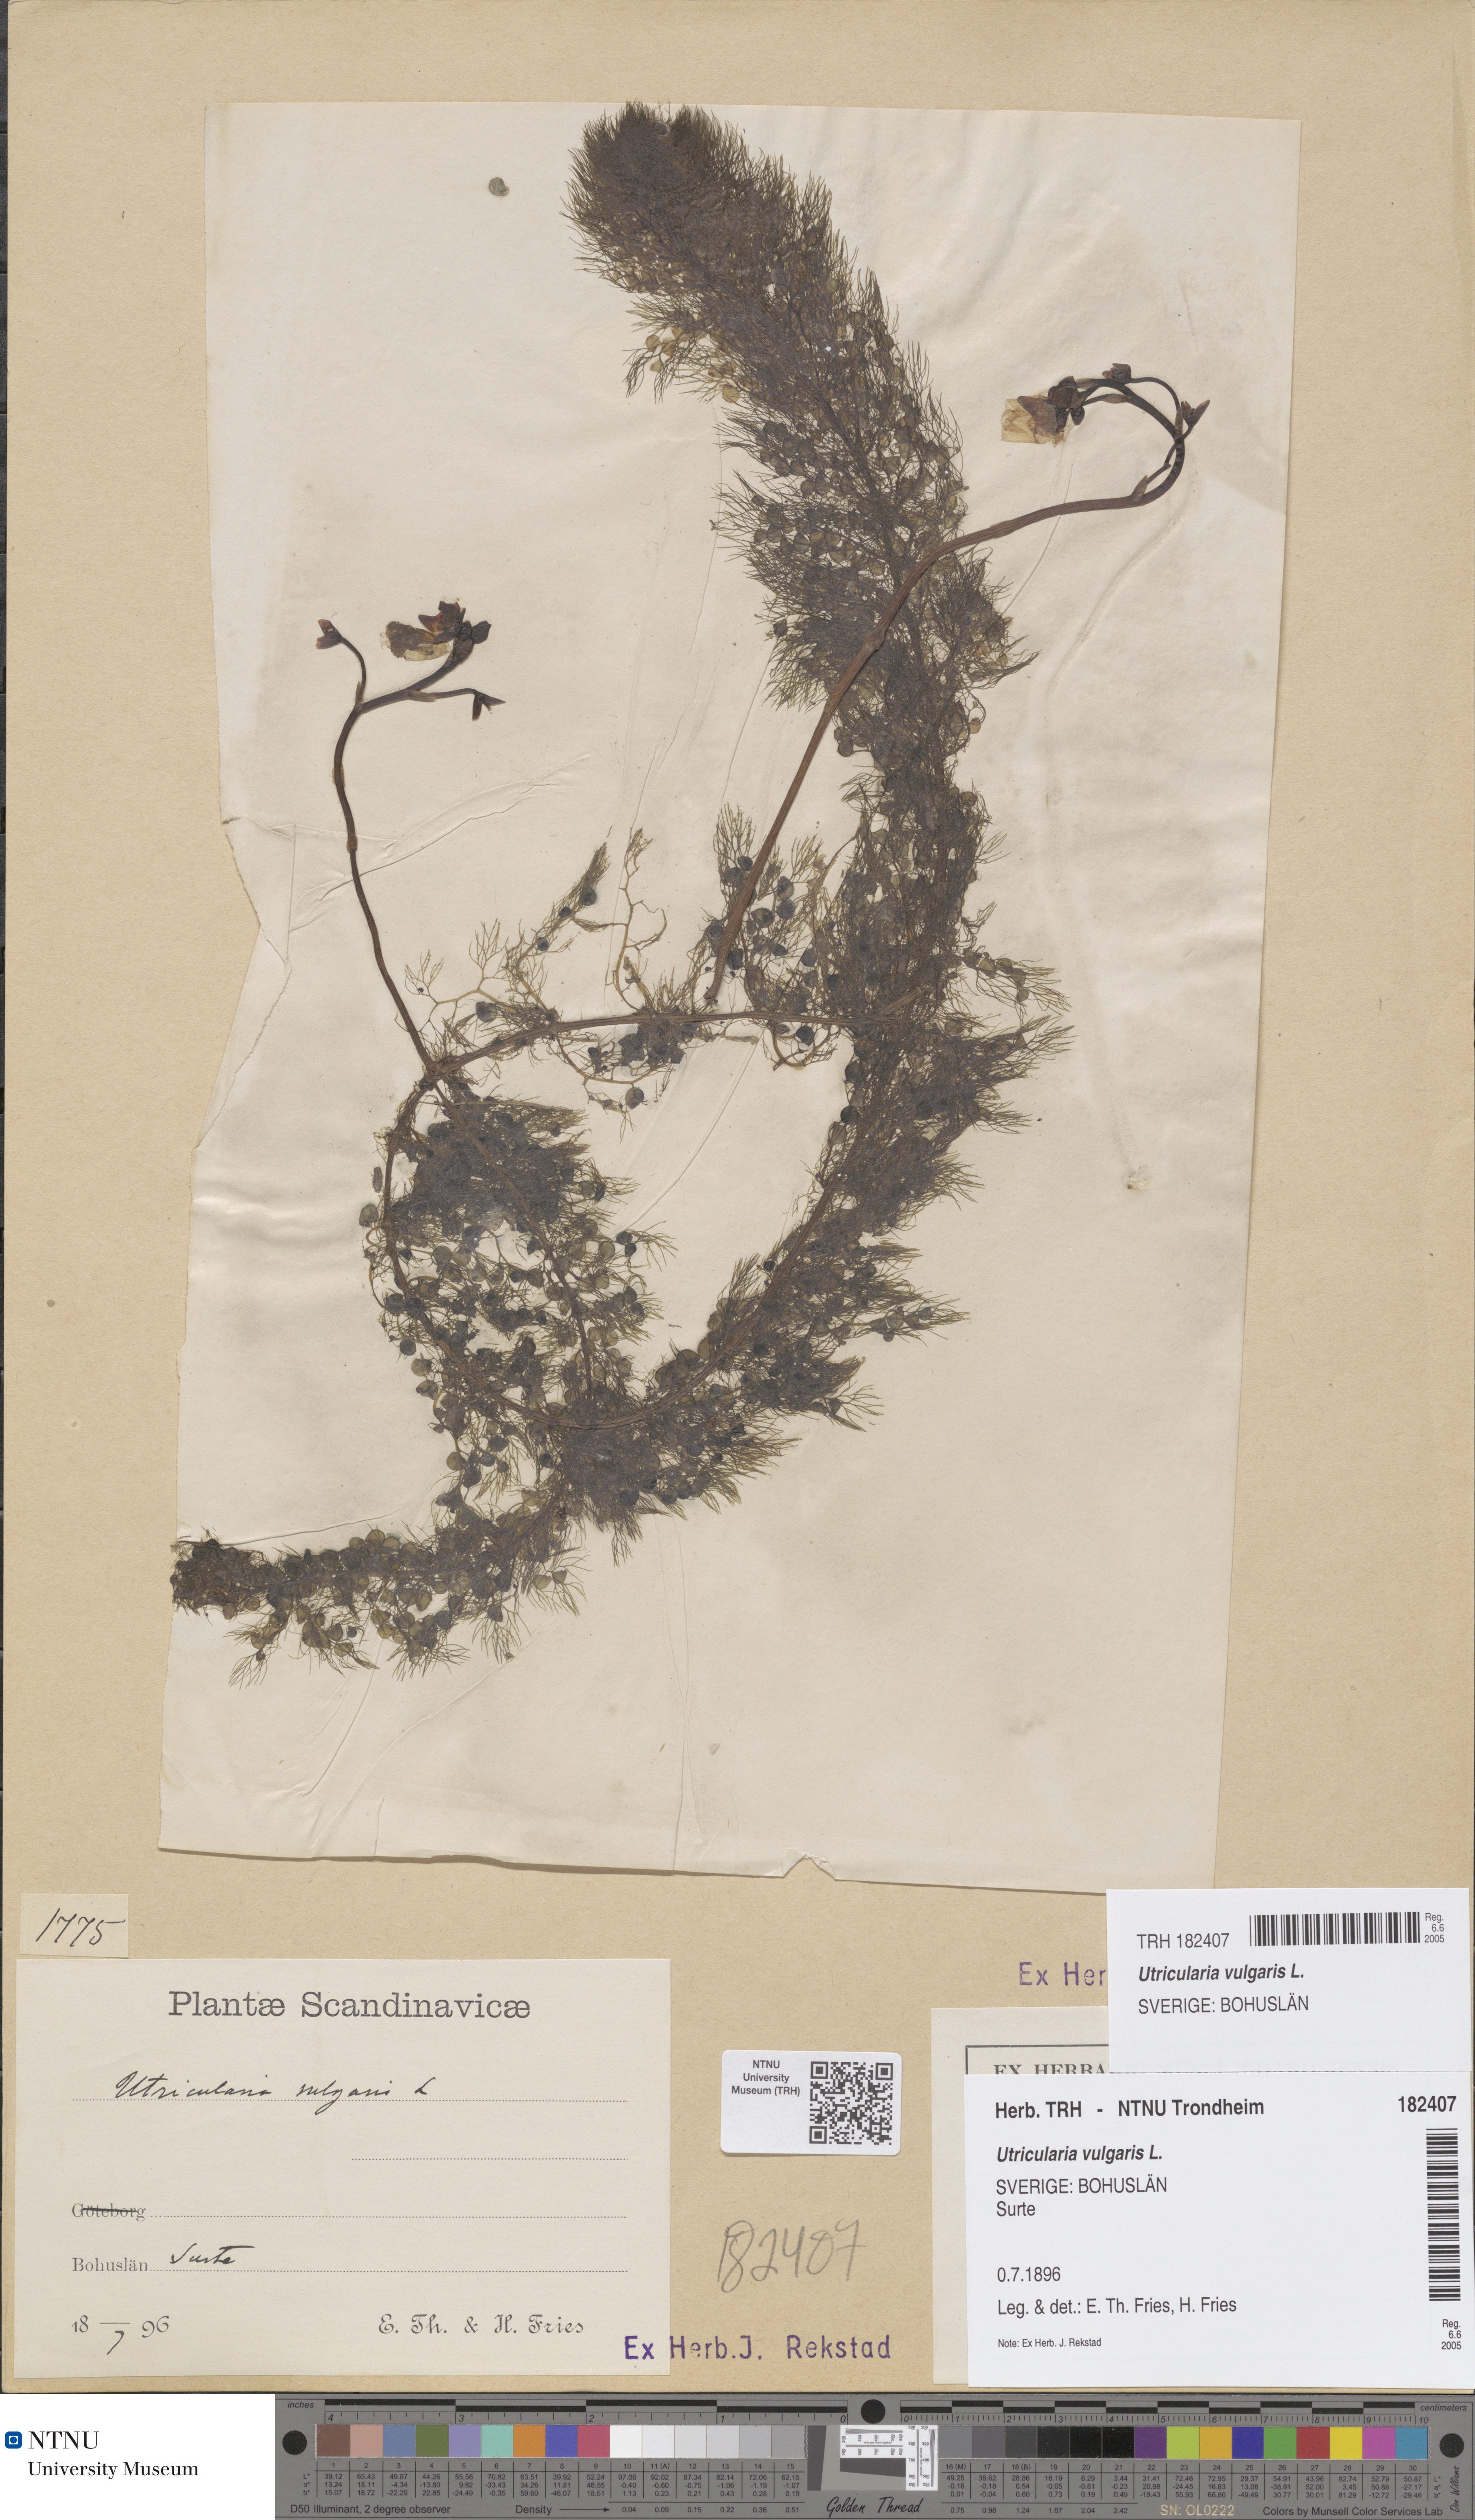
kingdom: Plantae
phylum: Tracheophyta
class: Magnoliopsida
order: Lamiales
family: Lentibulariaceae
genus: Utricularia
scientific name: Utricularia vulgaris
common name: Greater bladderwort
